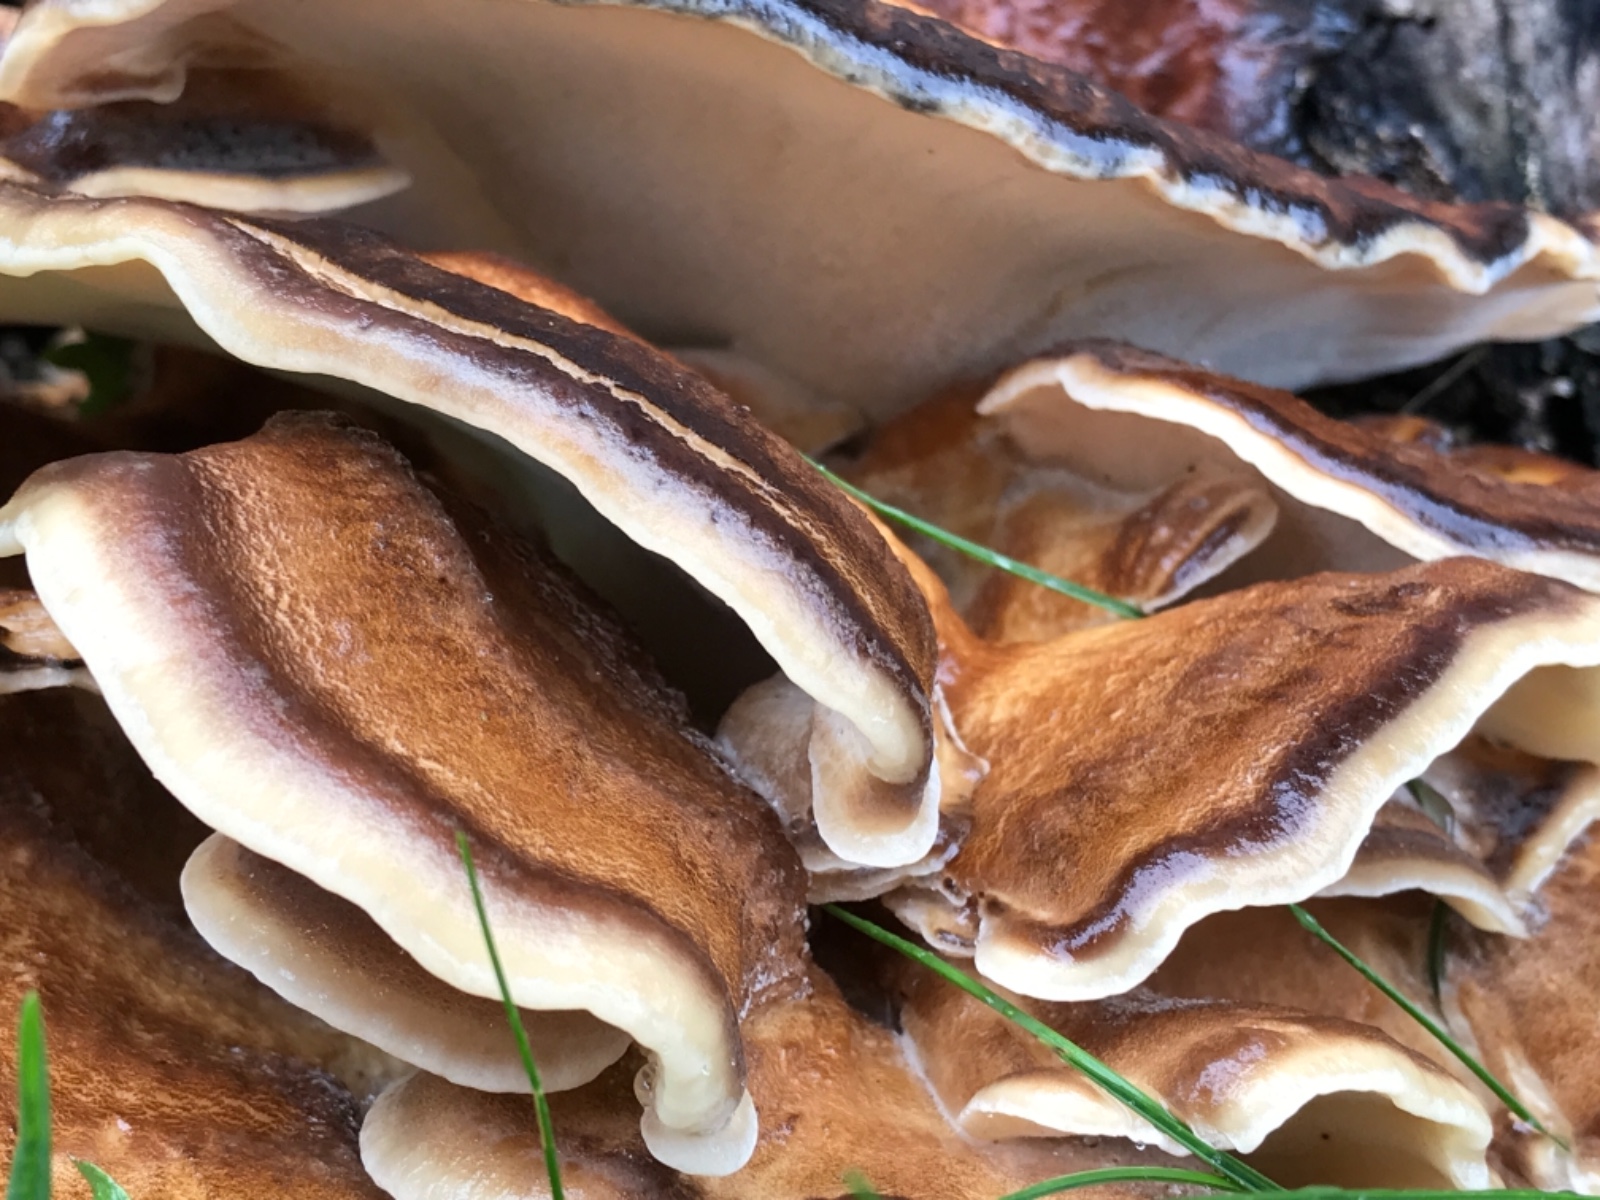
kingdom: Fungi
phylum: Basidiomycota
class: Agaricomycetes
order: Polyporales
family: Meripilaceae
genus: Meripilus
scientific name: Meripilus giganteus
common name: kæmpeporesvamp
